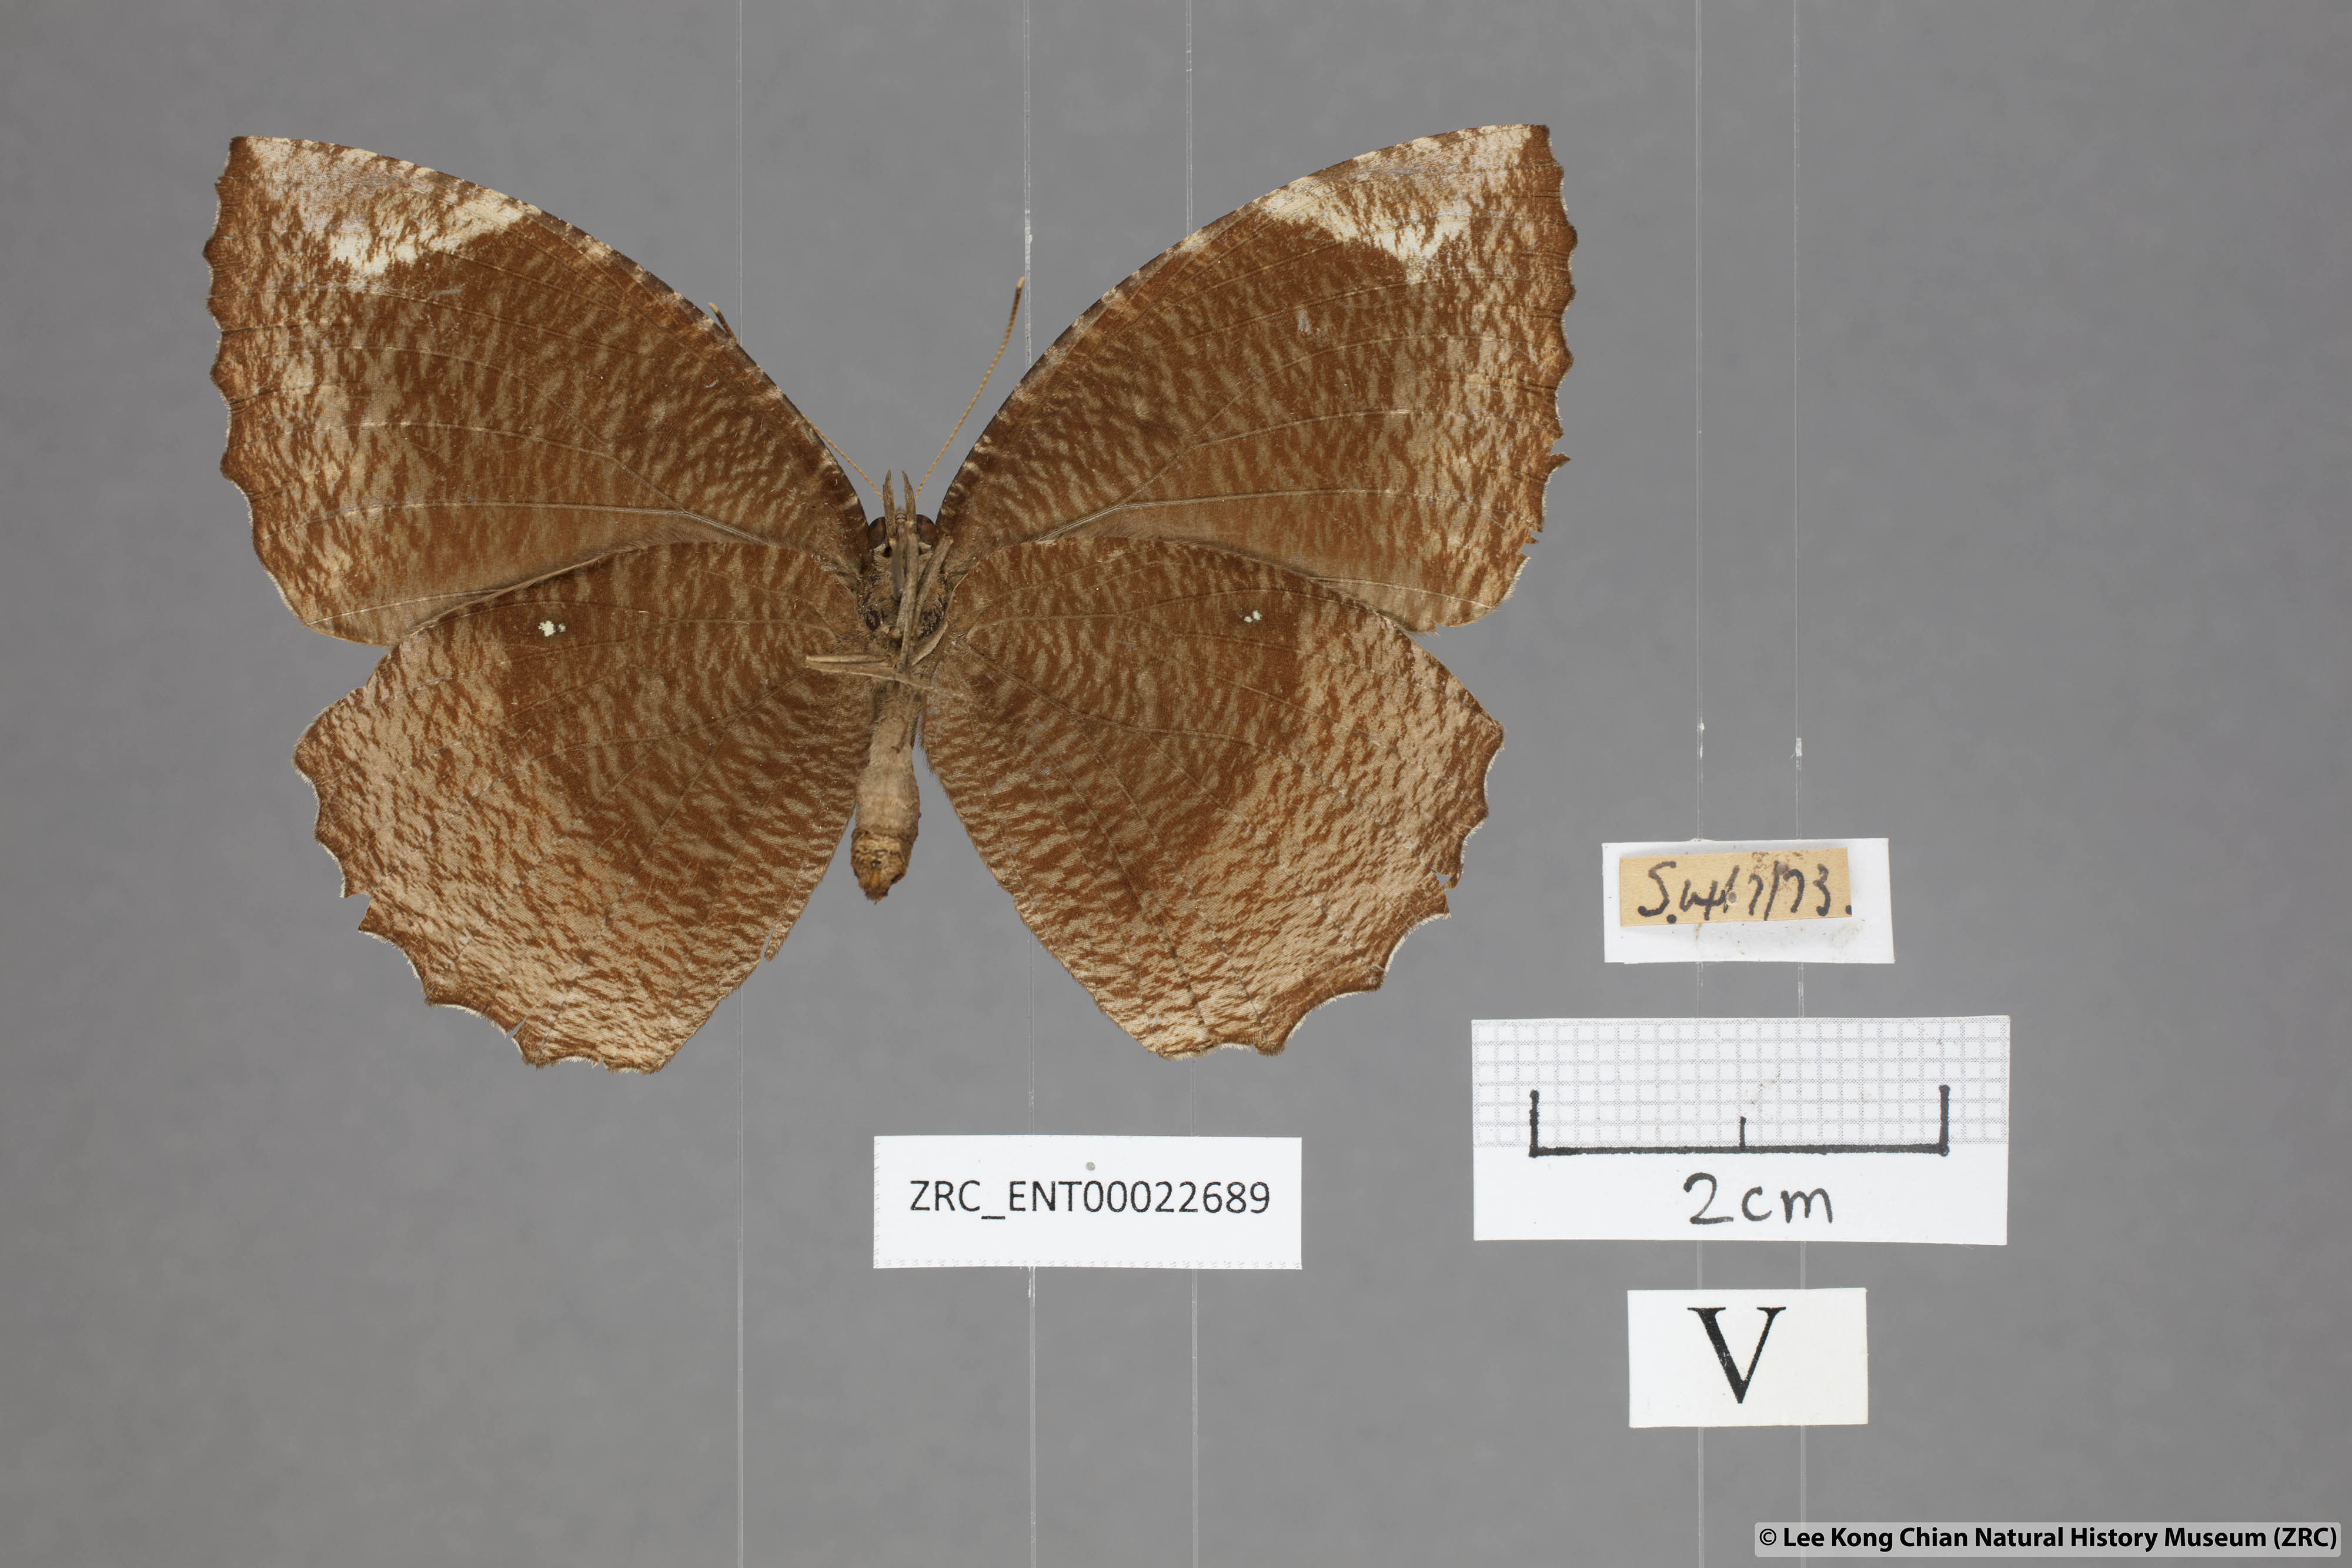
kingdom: Animalia
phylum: Arthropoda
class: Insecta
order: Lepidoptera
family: Nymphalidae
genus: Elymnias
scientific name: Elymnias hypermnestra
